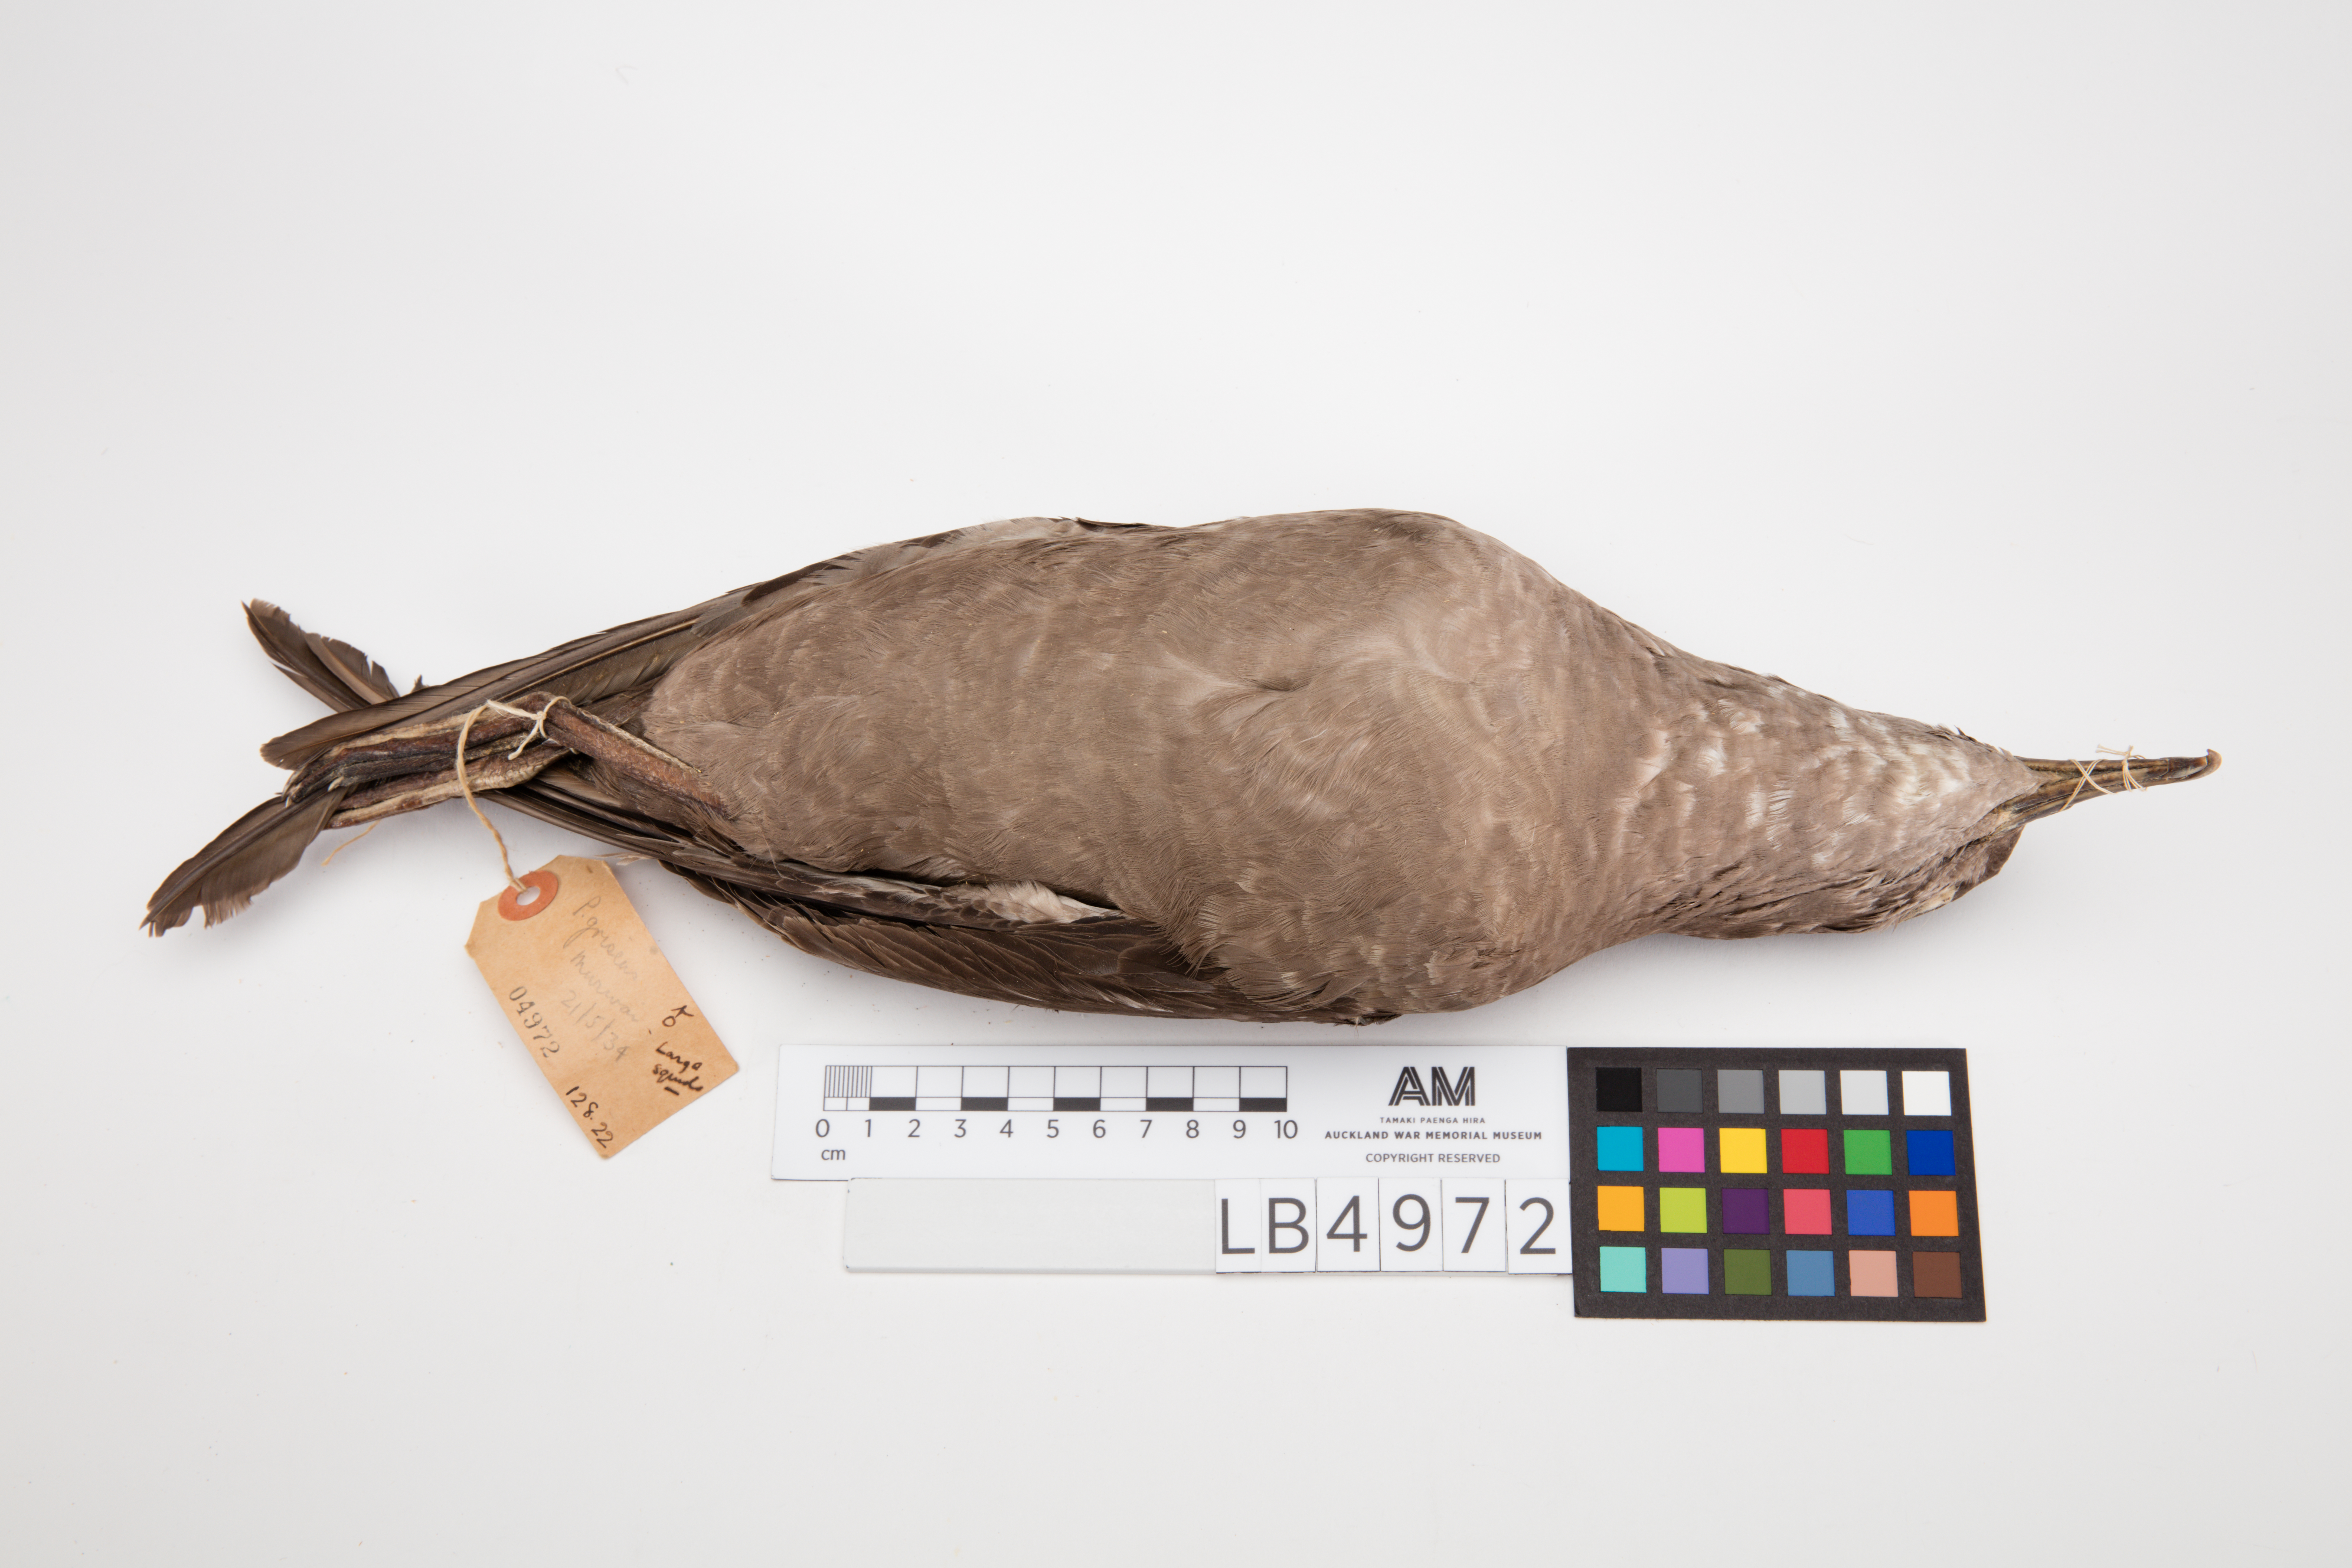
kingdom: Animalia
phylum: Chordata
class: Aves
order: Procellariiformes
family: Procellariidae
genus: Puffinus
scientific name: Puffinus griseus
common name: Sooty shearwater
